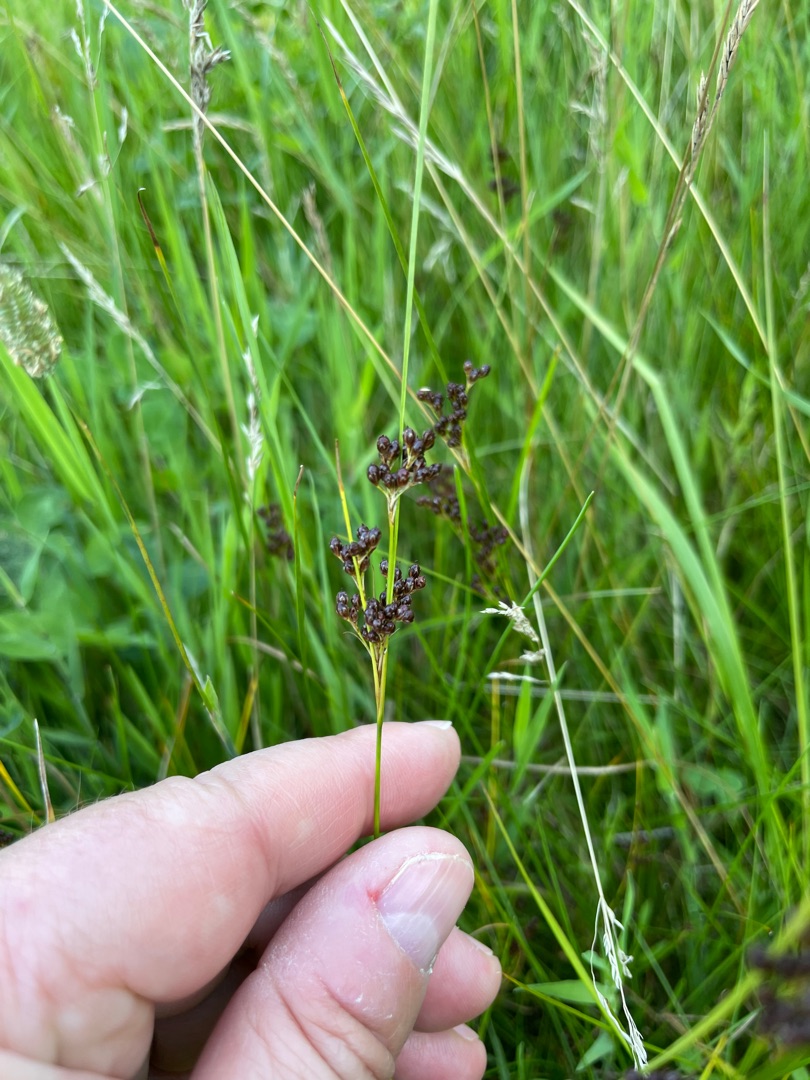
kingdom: Plantae
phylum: Tracheophyta
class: Liliopsida
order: Poales
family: Juncaceae
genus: Juncus
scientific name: Juncus compressus
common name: Fladstrået siv
